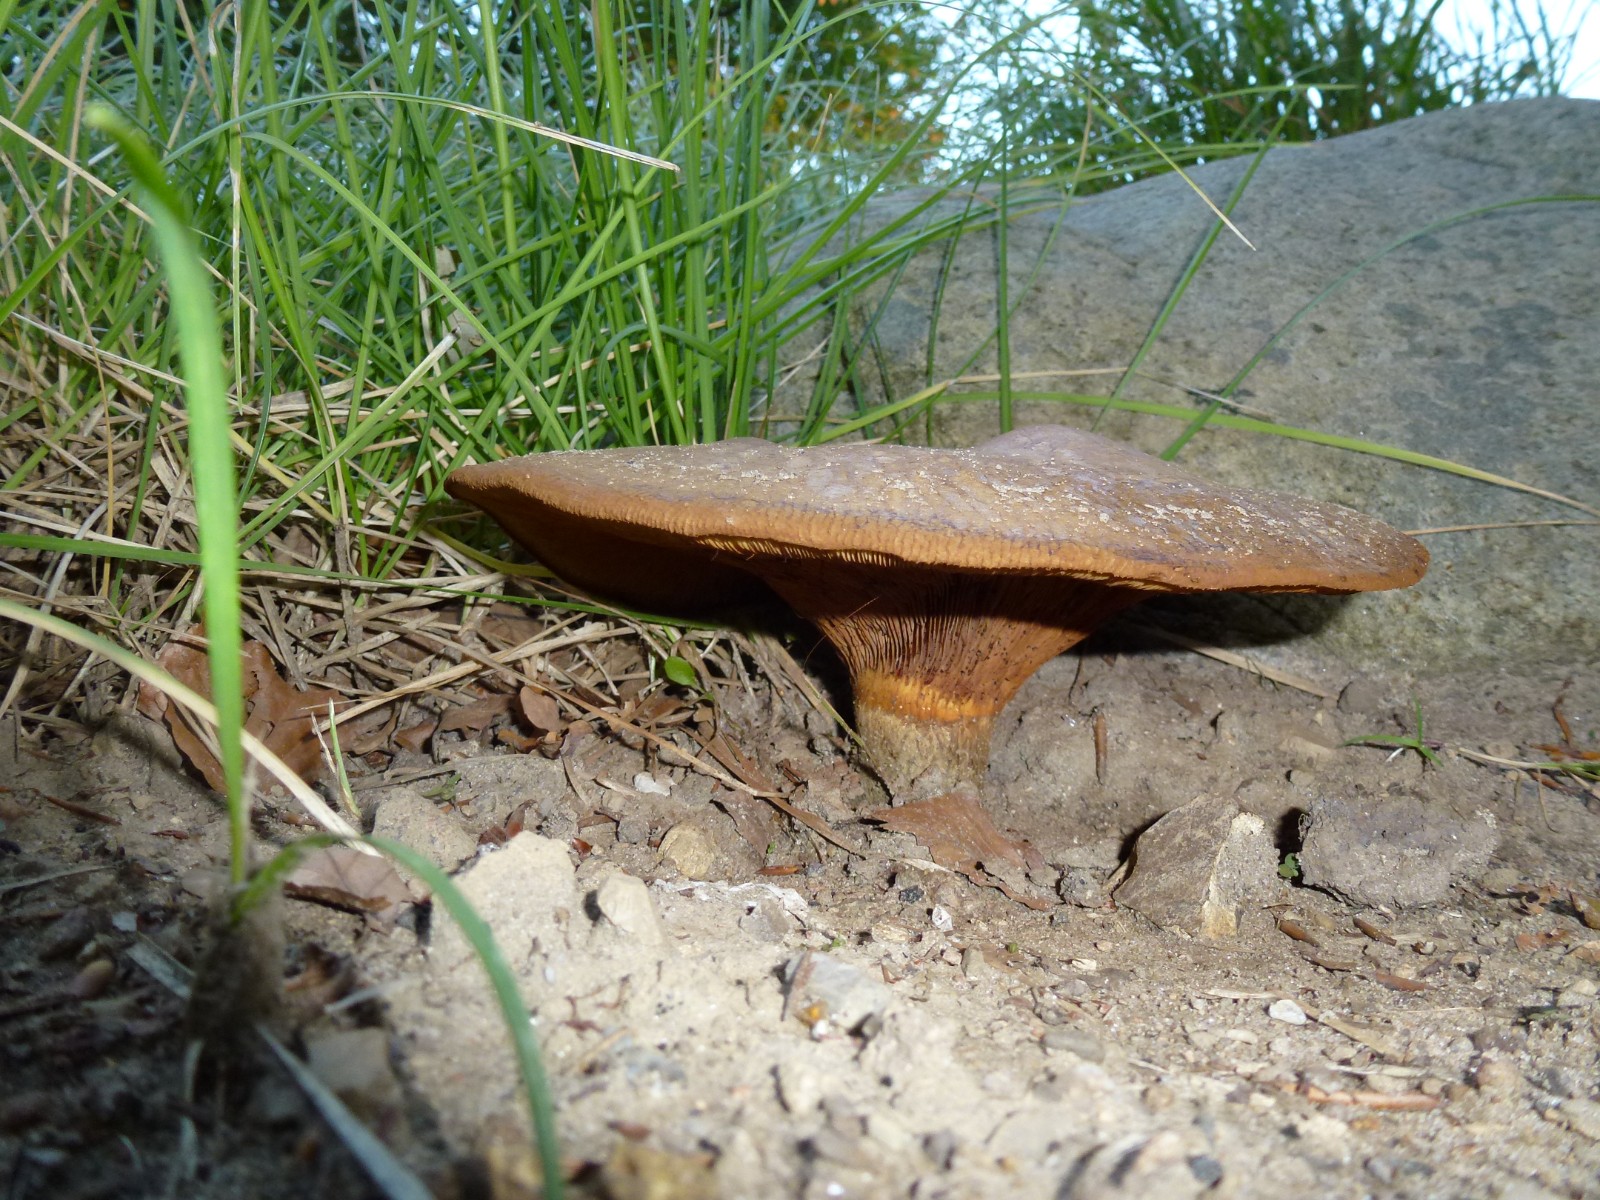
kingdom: Fungi
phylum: Basidiomycota
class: Agaricomycetes
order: Boletales
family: Paxillaceae
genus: Paxillus
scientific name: Paxillus
